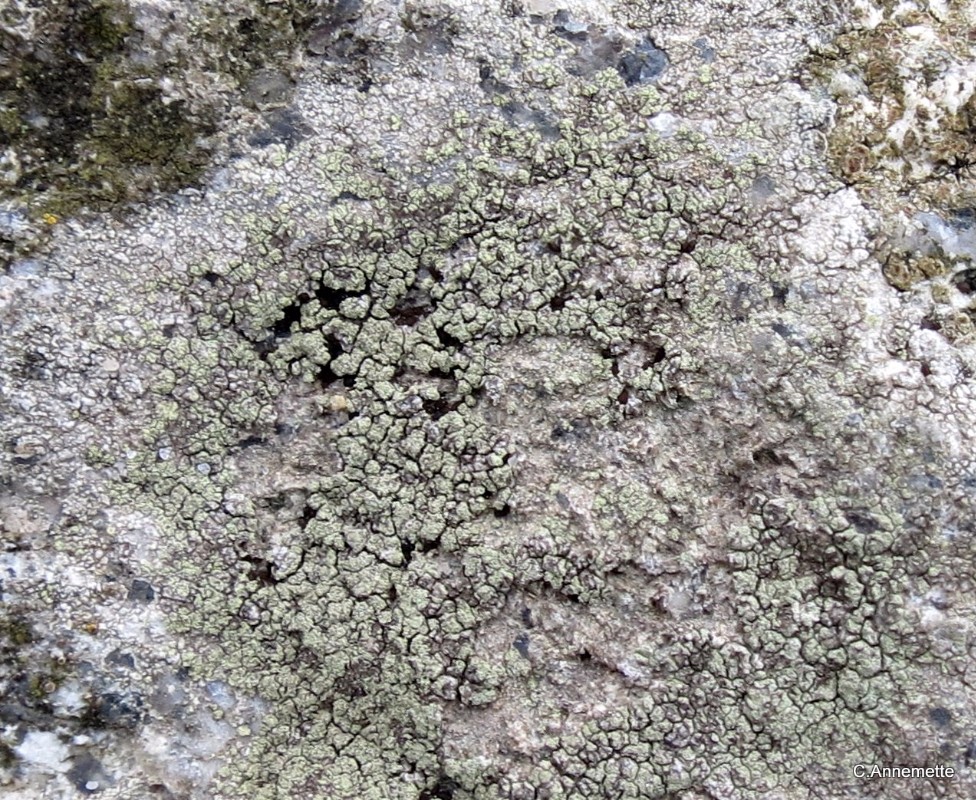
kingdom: Fungi
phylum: Ascomycota
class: Lecanoromycetes
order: Lecanorales
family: Lecanoraceae
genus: Lecidella
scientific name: Lecidella scabra
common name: skurvet skivelav
